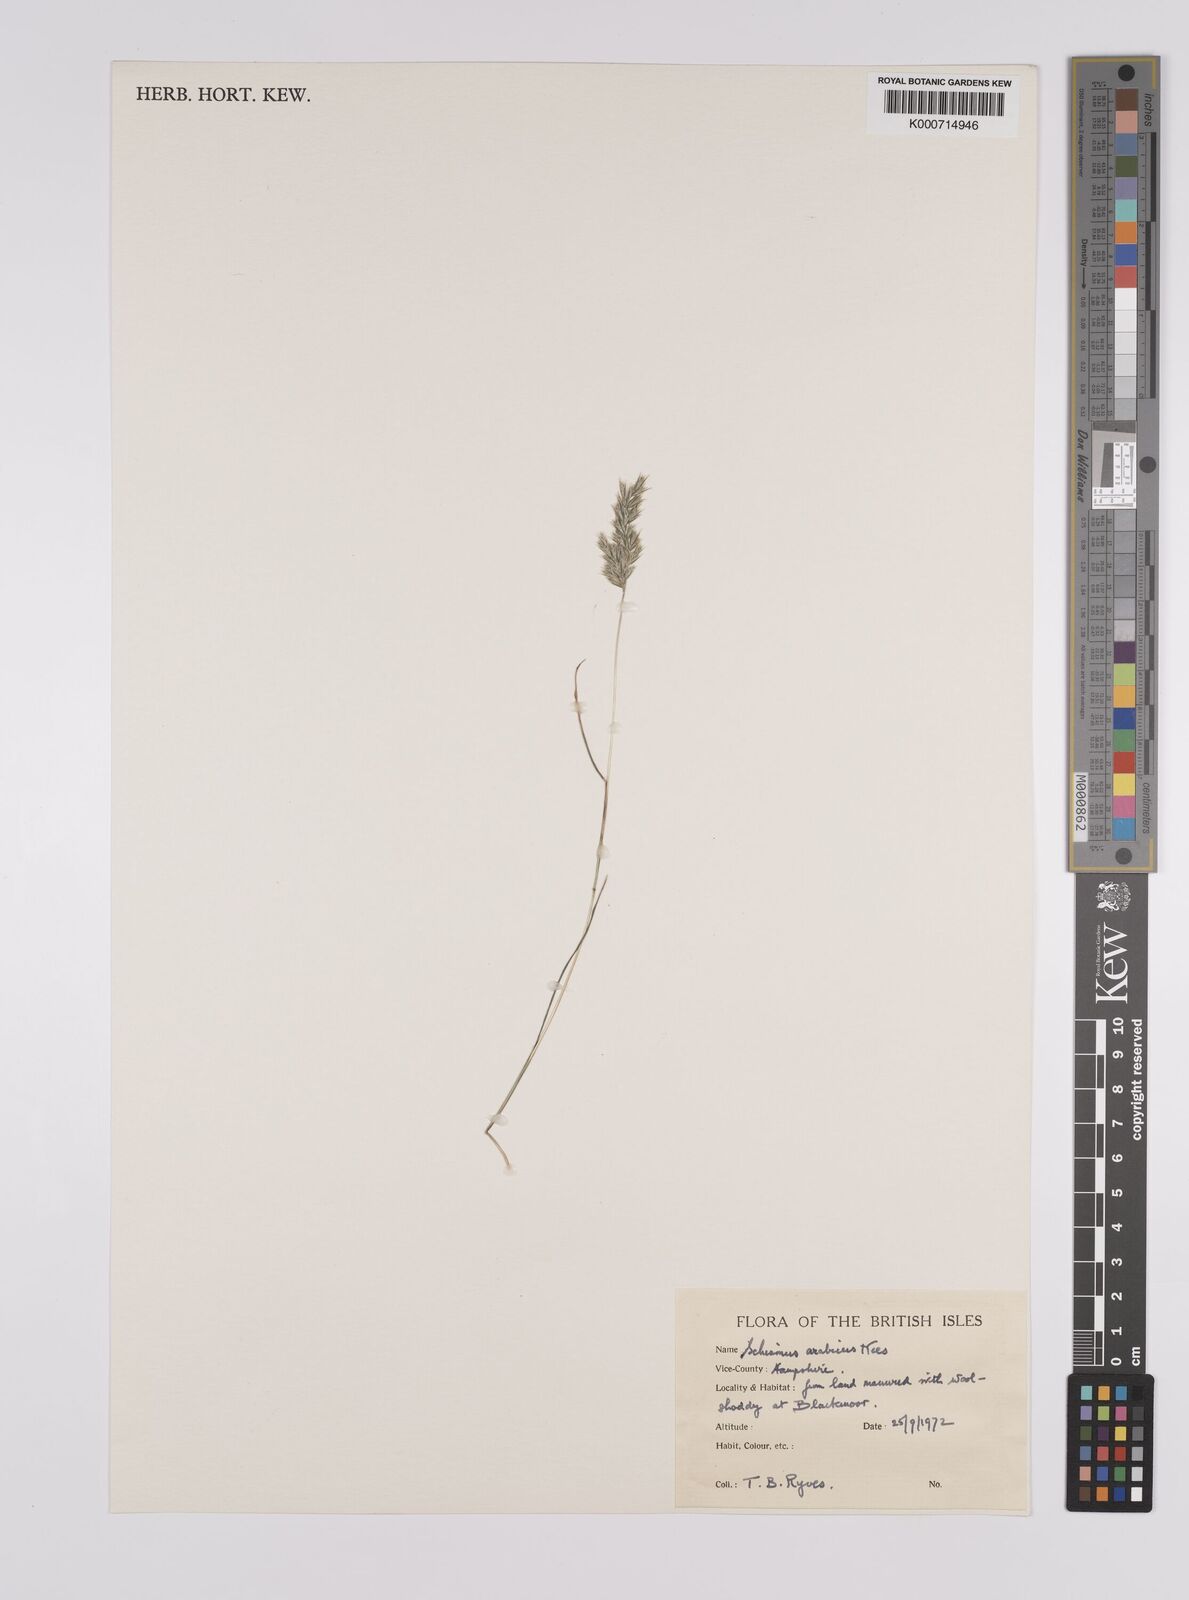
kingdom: Plantae
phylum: Tracheophyta
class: Liliopsida
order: Poales
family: Poaceae
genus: Schismus
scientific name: Schismus arabicus
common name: Arabian schismus
